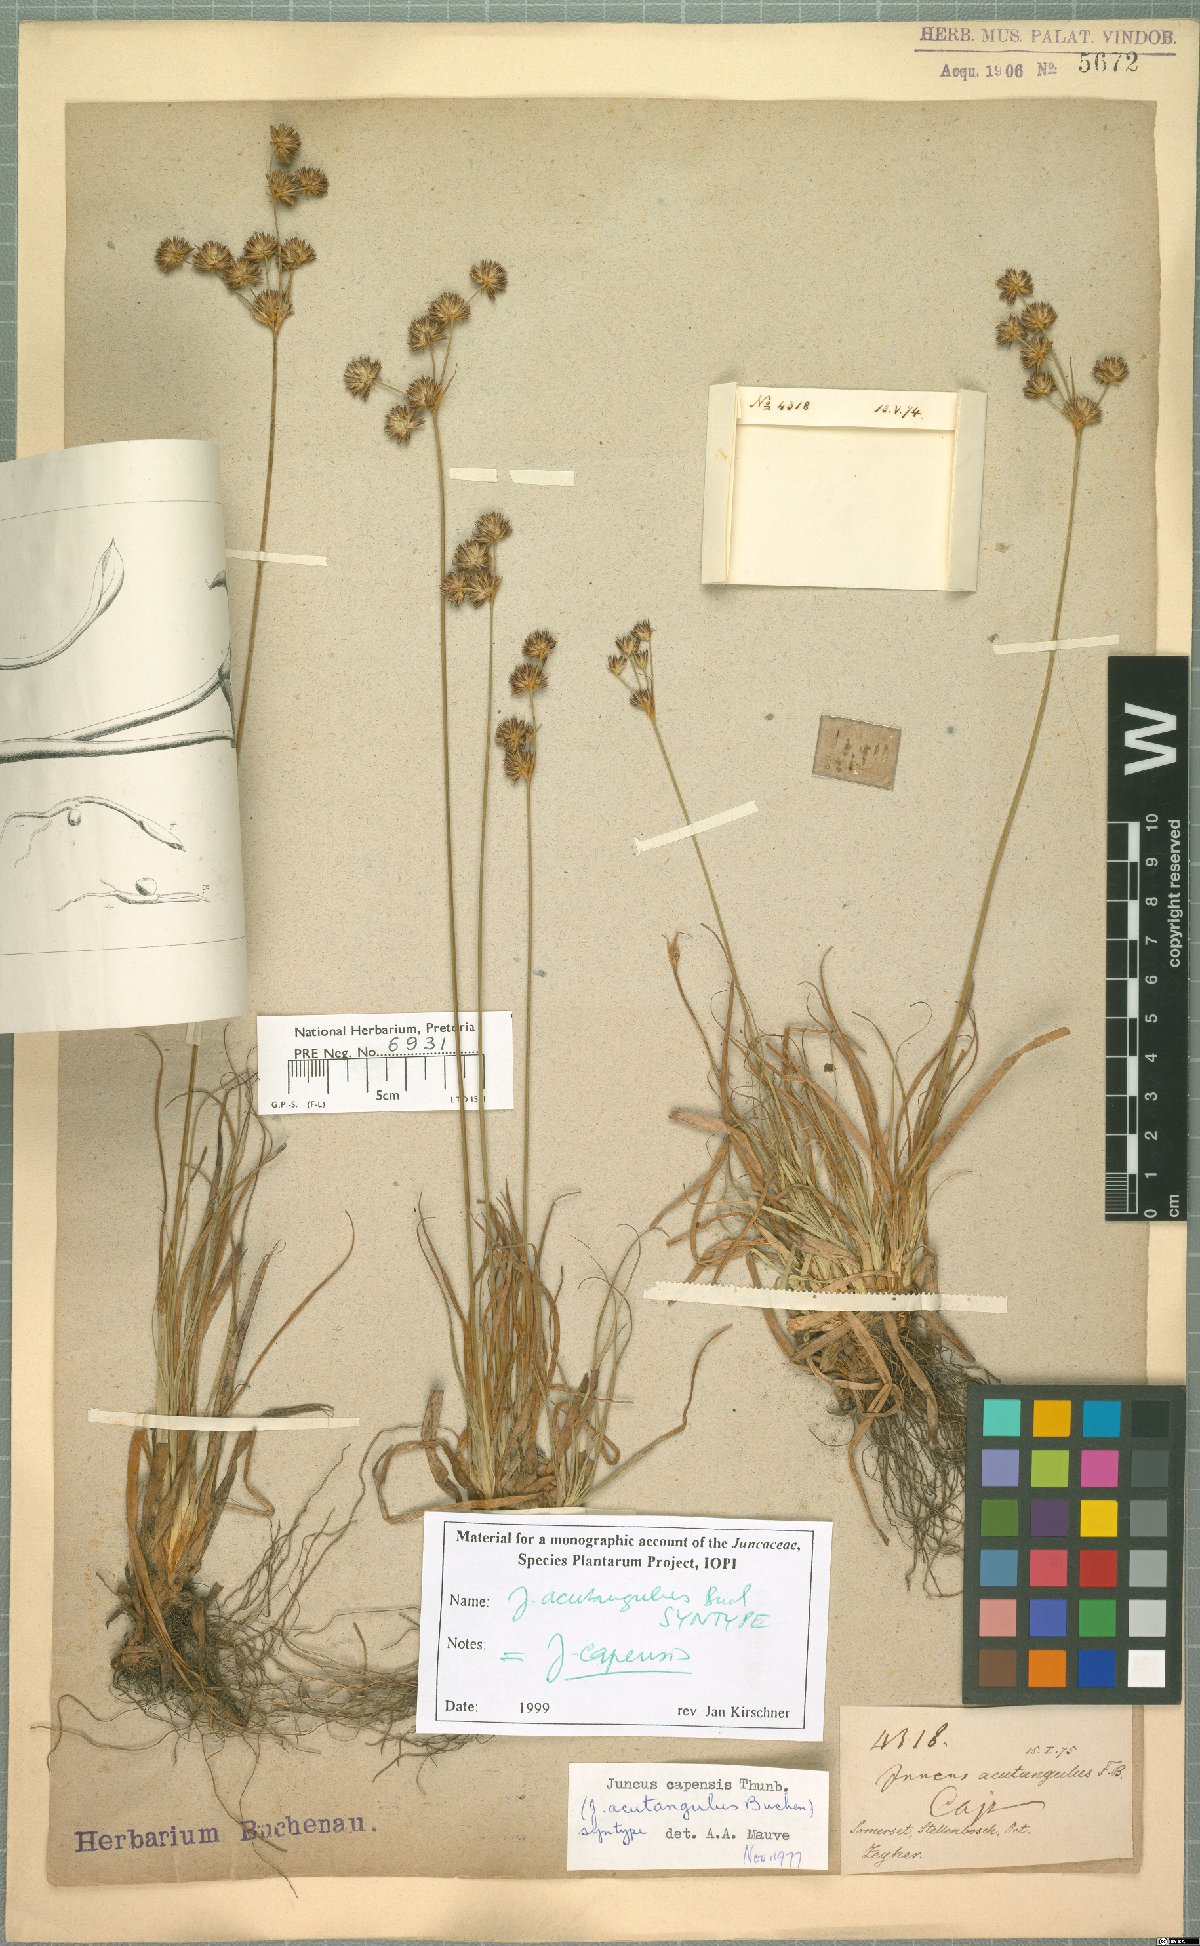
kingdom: Plantae
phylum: Tracheophyta
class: Liliopsida
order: Poales
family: Juncaceae
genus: Juncus
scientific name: Juncus capensis
